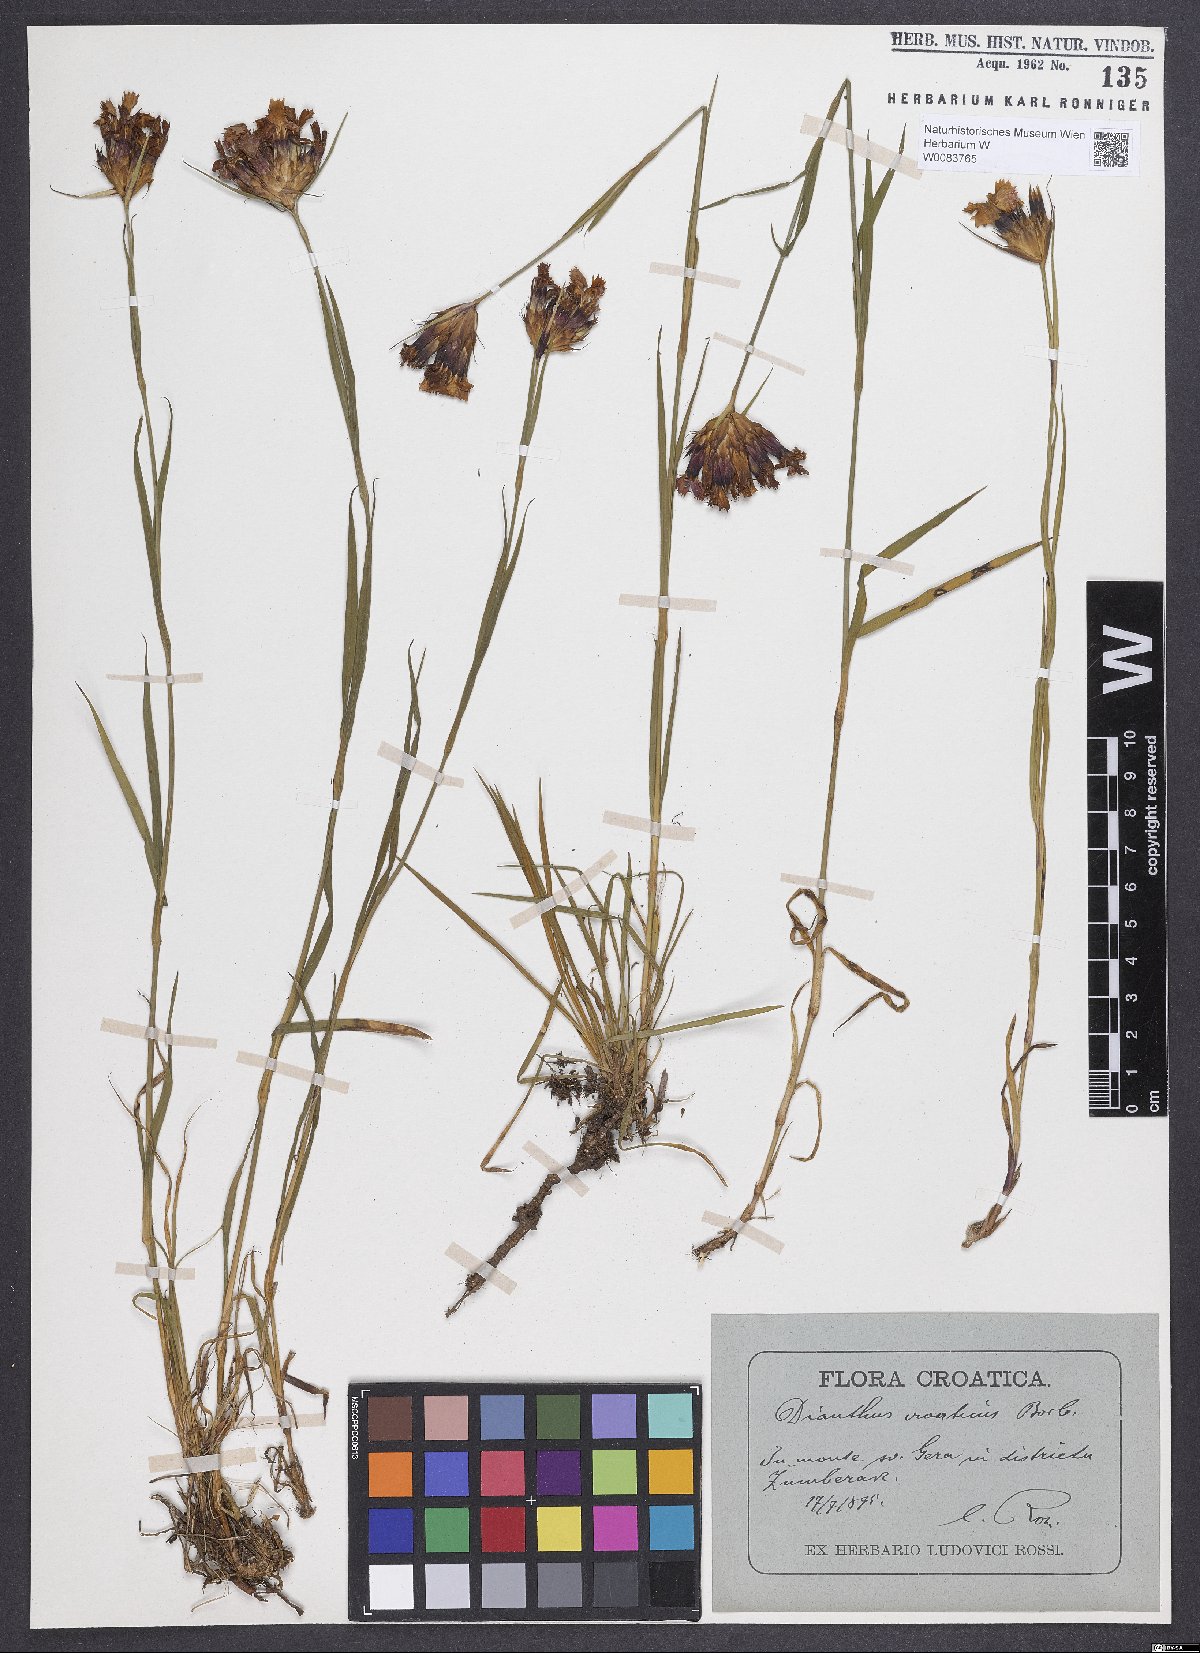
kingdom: Plantae
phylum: Tracheophyta
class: Magnoliopsida
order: Caryophyllales
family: Caryophyllaceae
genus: Dianthus
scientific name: Dianthus giganteus
